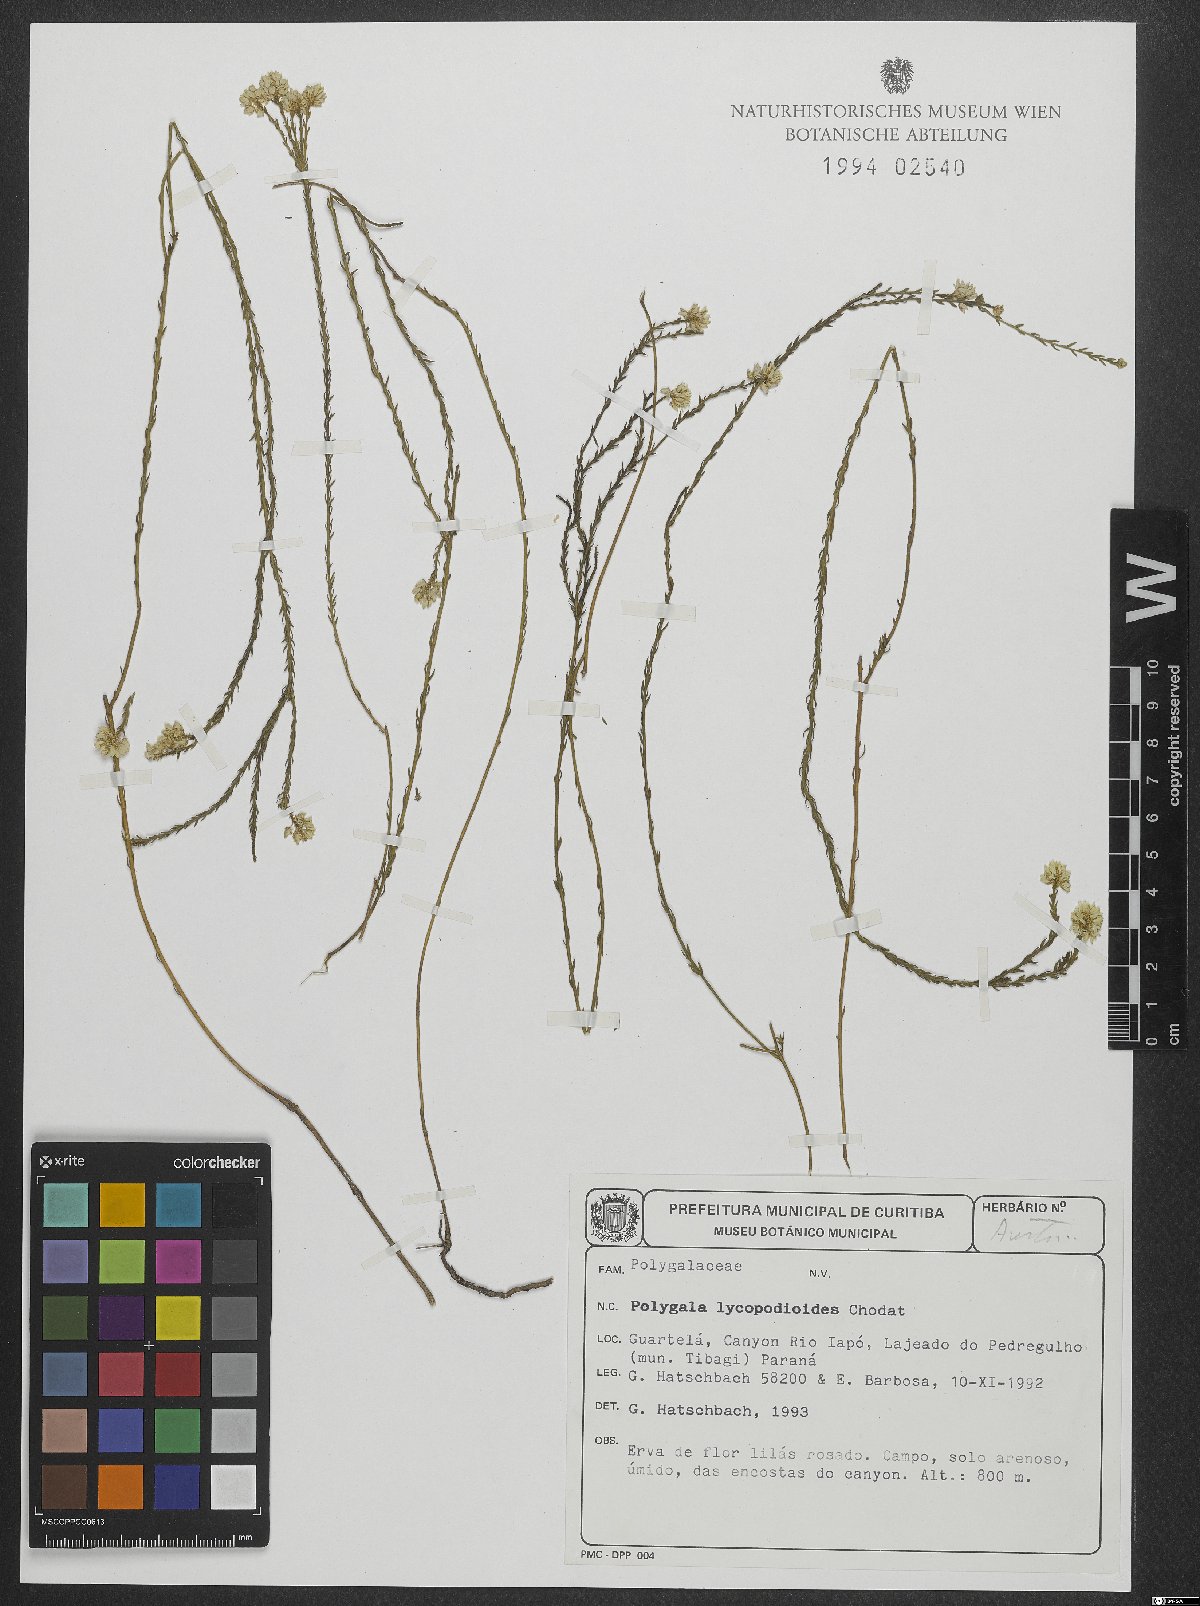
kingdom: Plantae
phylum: Tracheophyta
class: Magnoliopsida
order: Fabales
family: Polygalaceae
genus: Polygala
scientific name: Polygala lycopodioides
